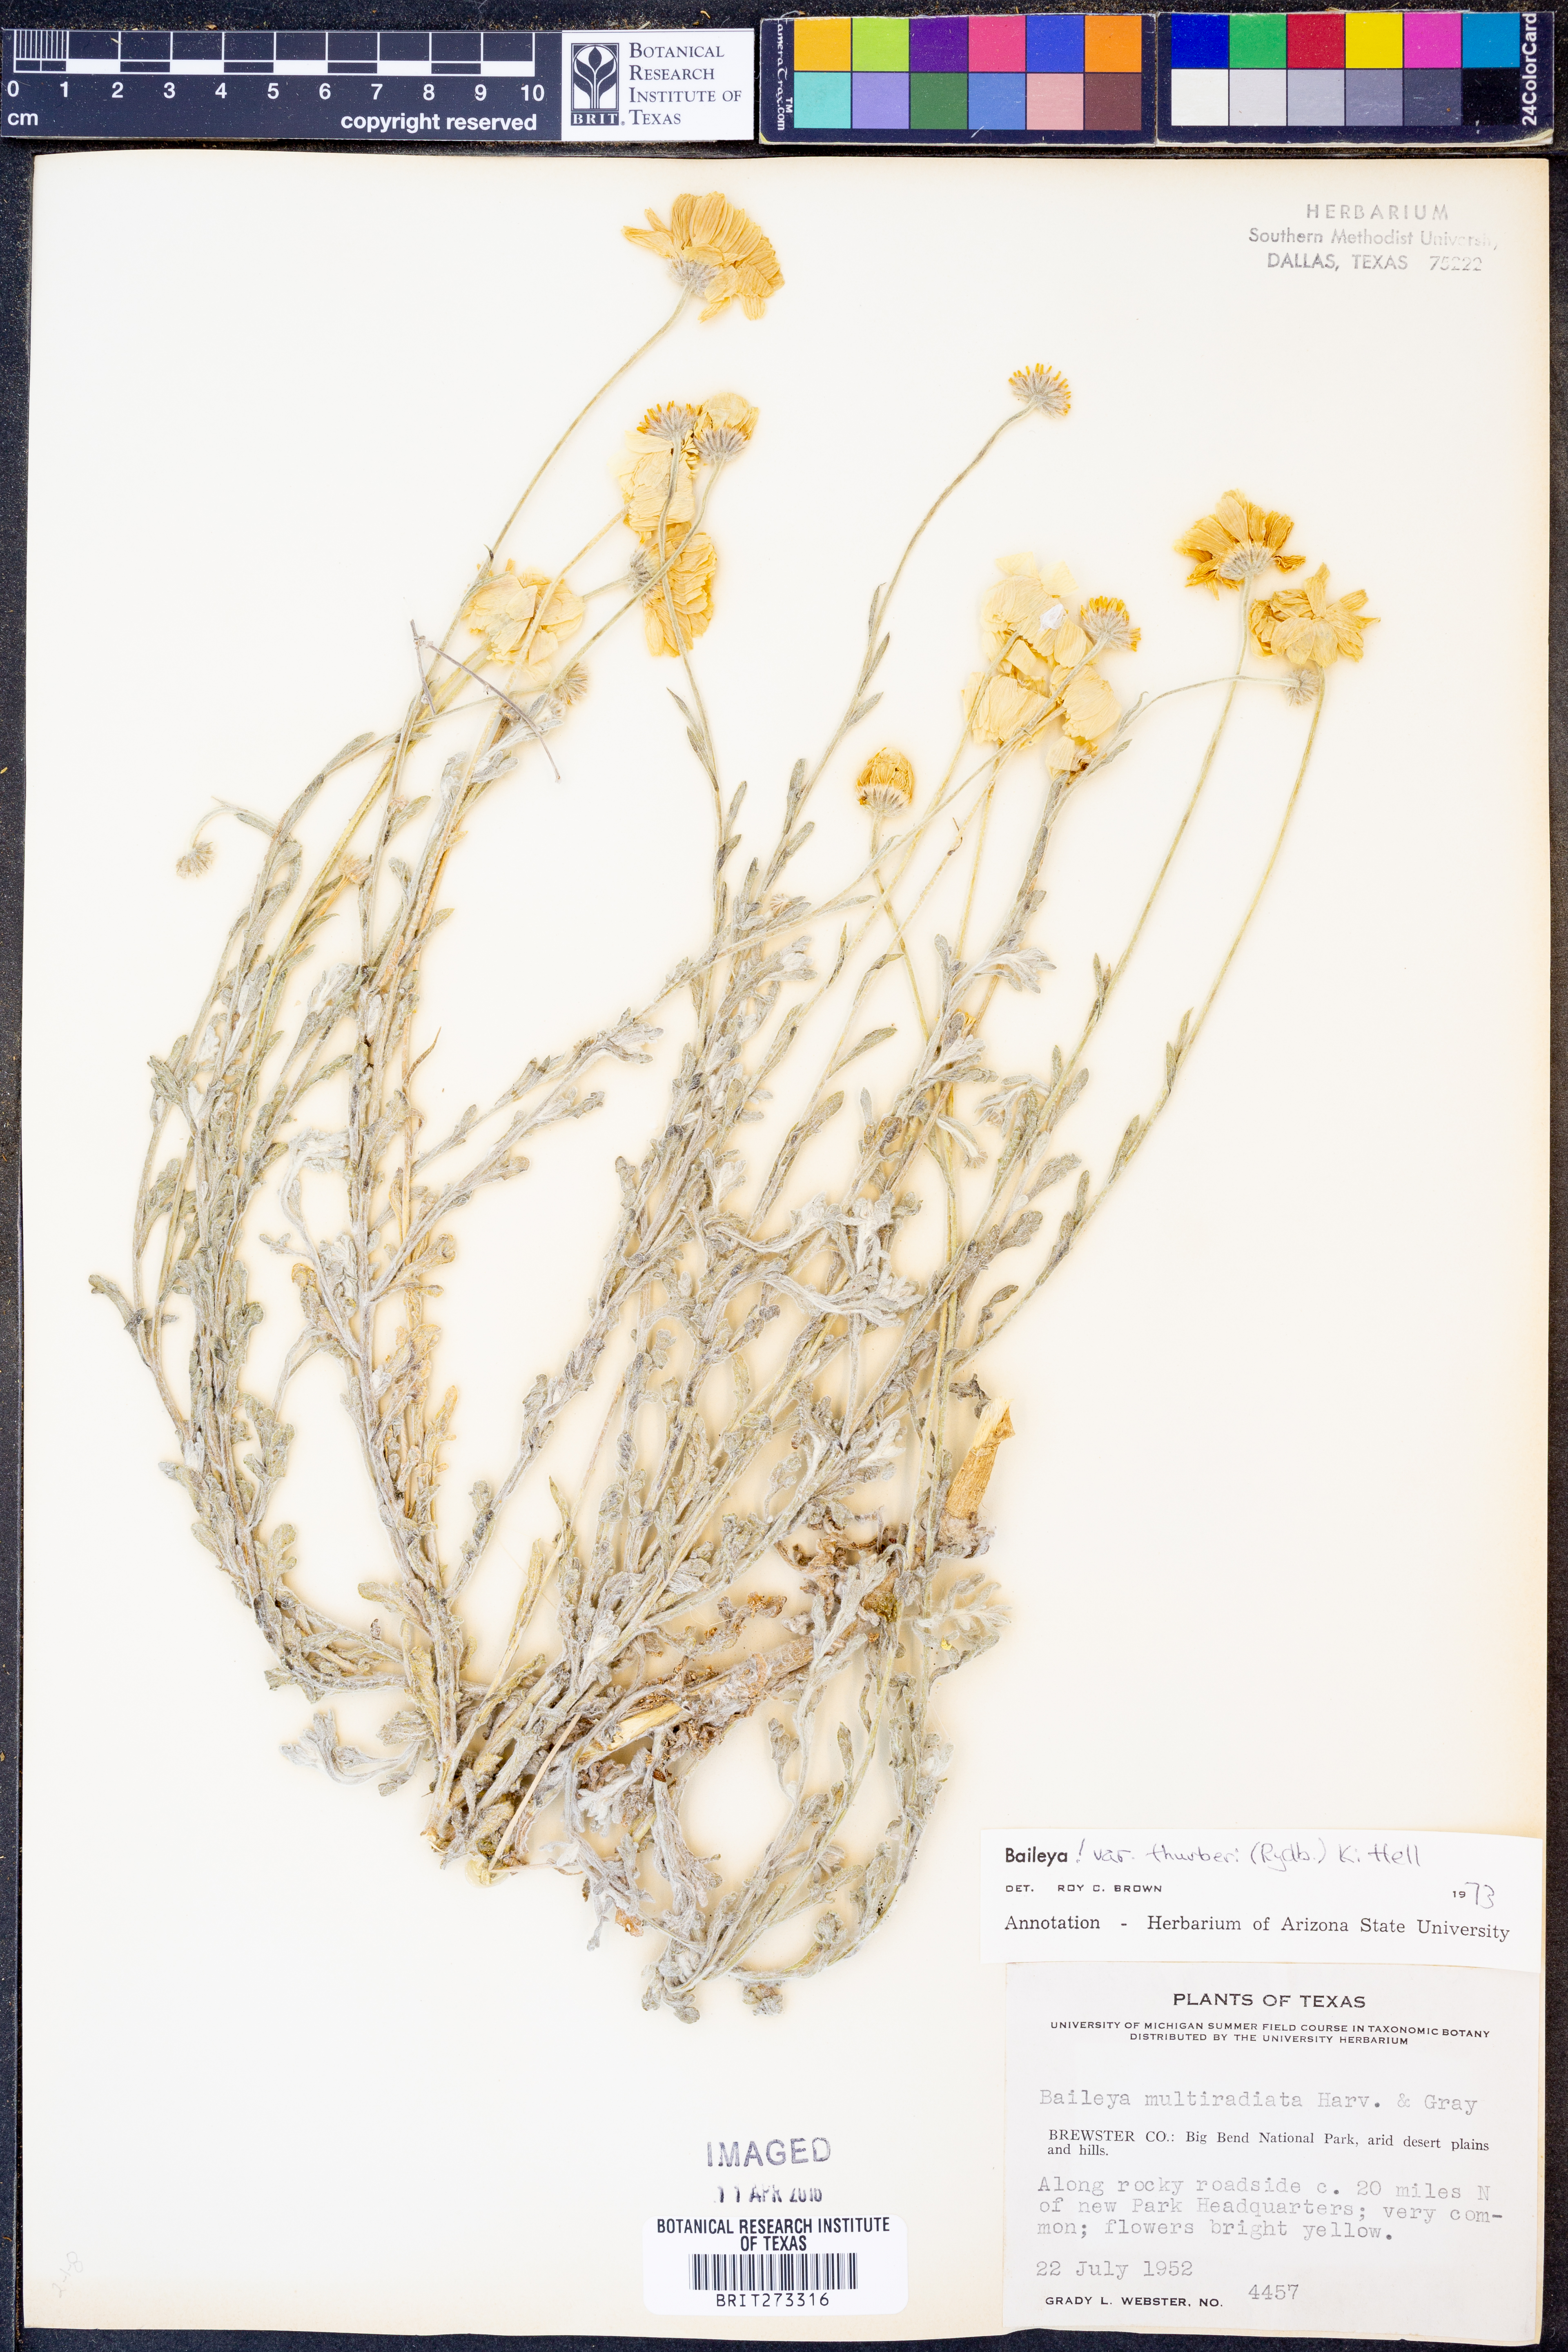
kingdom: Plantae
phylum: Tracheophyta
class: Magnoliopsida
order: Asterales
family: Asteraceae
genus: Baileya
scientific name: Baileya multiradiata
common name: Desert-marigold
